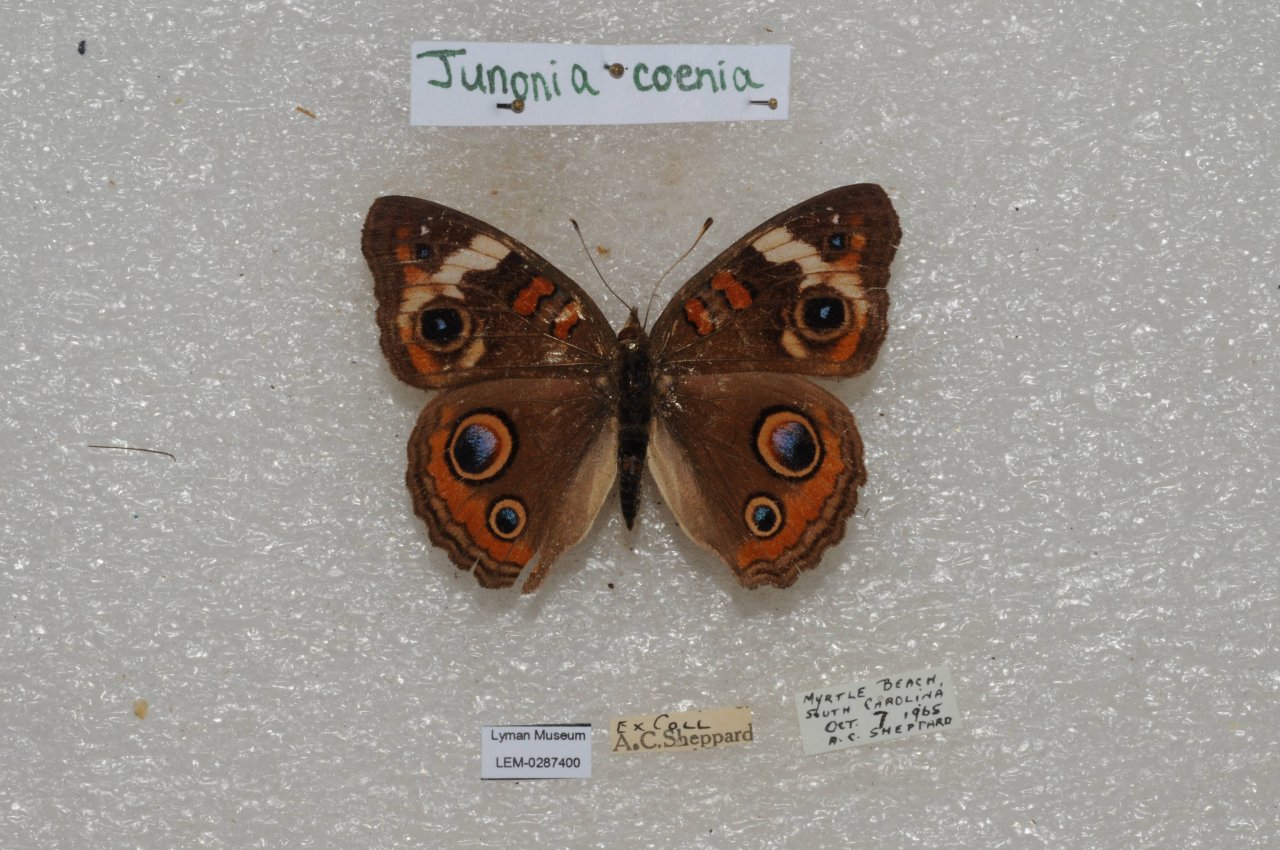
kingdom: Animalia
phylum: Arthropoda
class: Insecta
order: Lepidoptera
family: Nymphalidae
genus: Junonia
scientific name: Junonia coenia
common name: Common Buckeye
